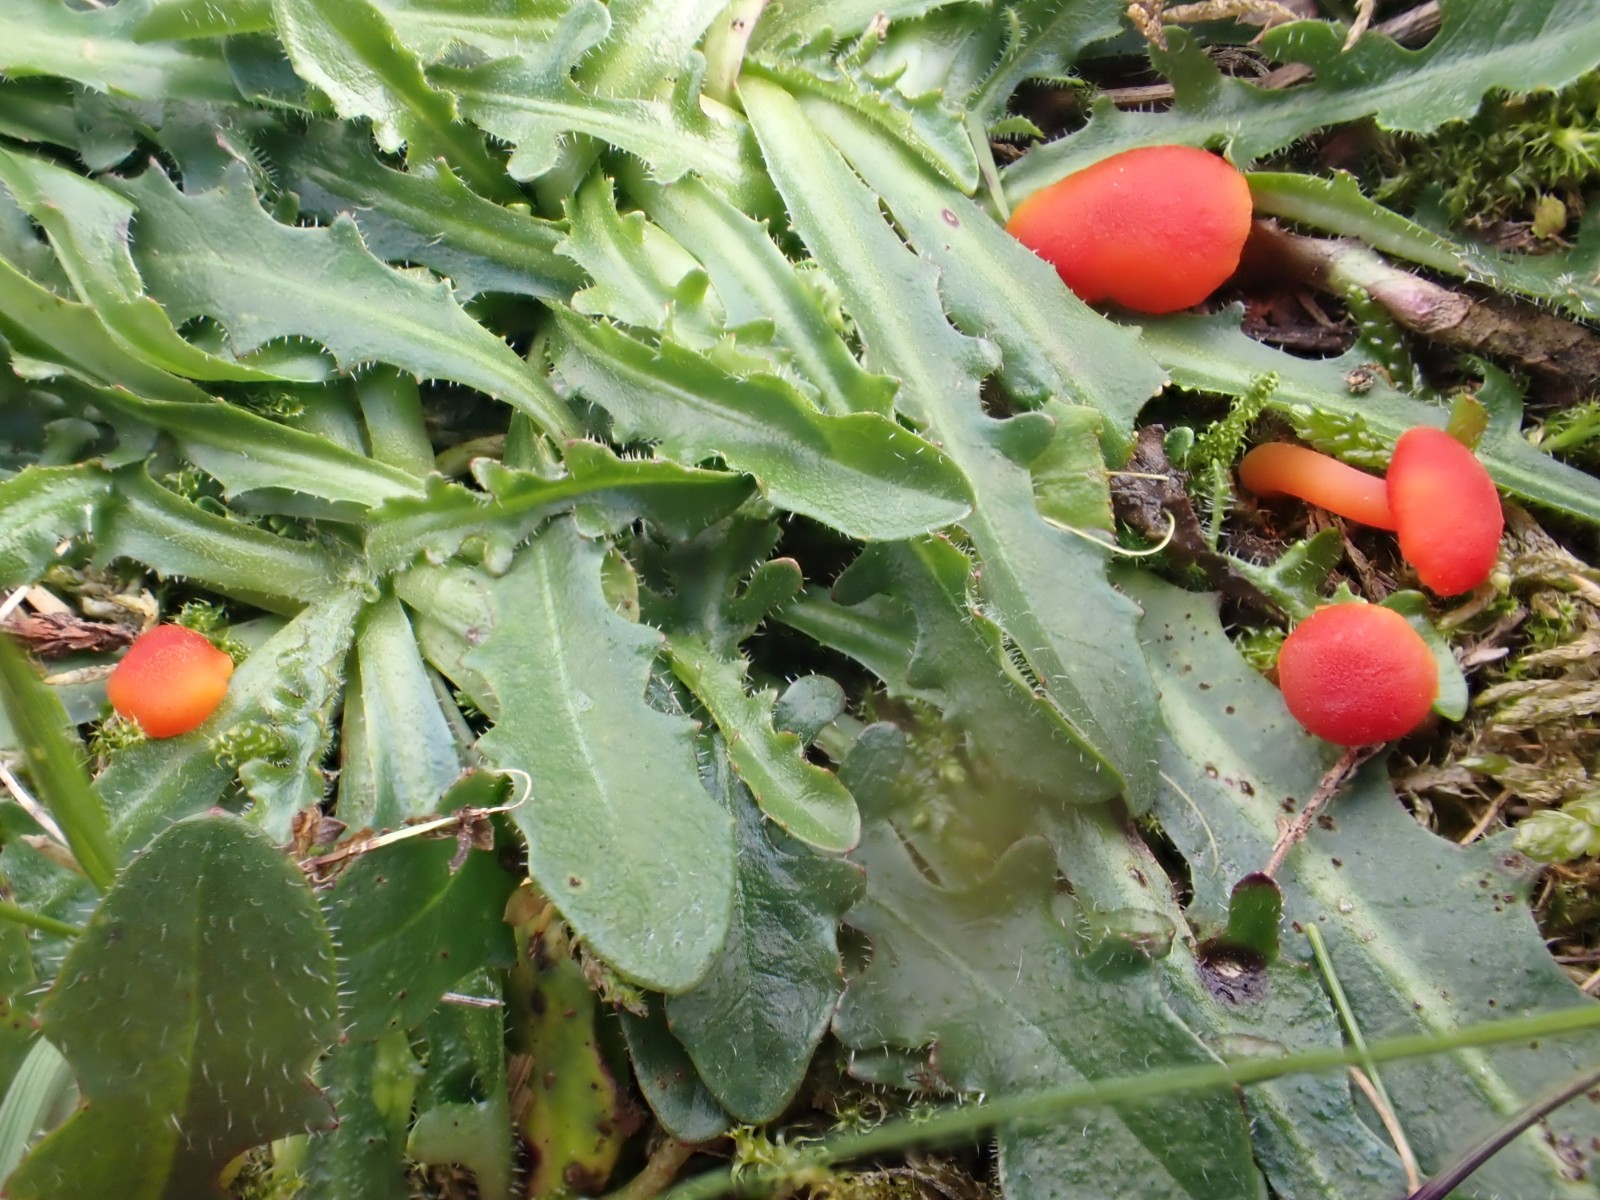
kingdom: Fungi
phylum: Basidiomycota
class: Agaricomycetes
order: Agaricales
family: Hygrophoraceae
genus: Hygrocybe
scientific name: Hygrocybe miniata
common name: mønje-vokshat
